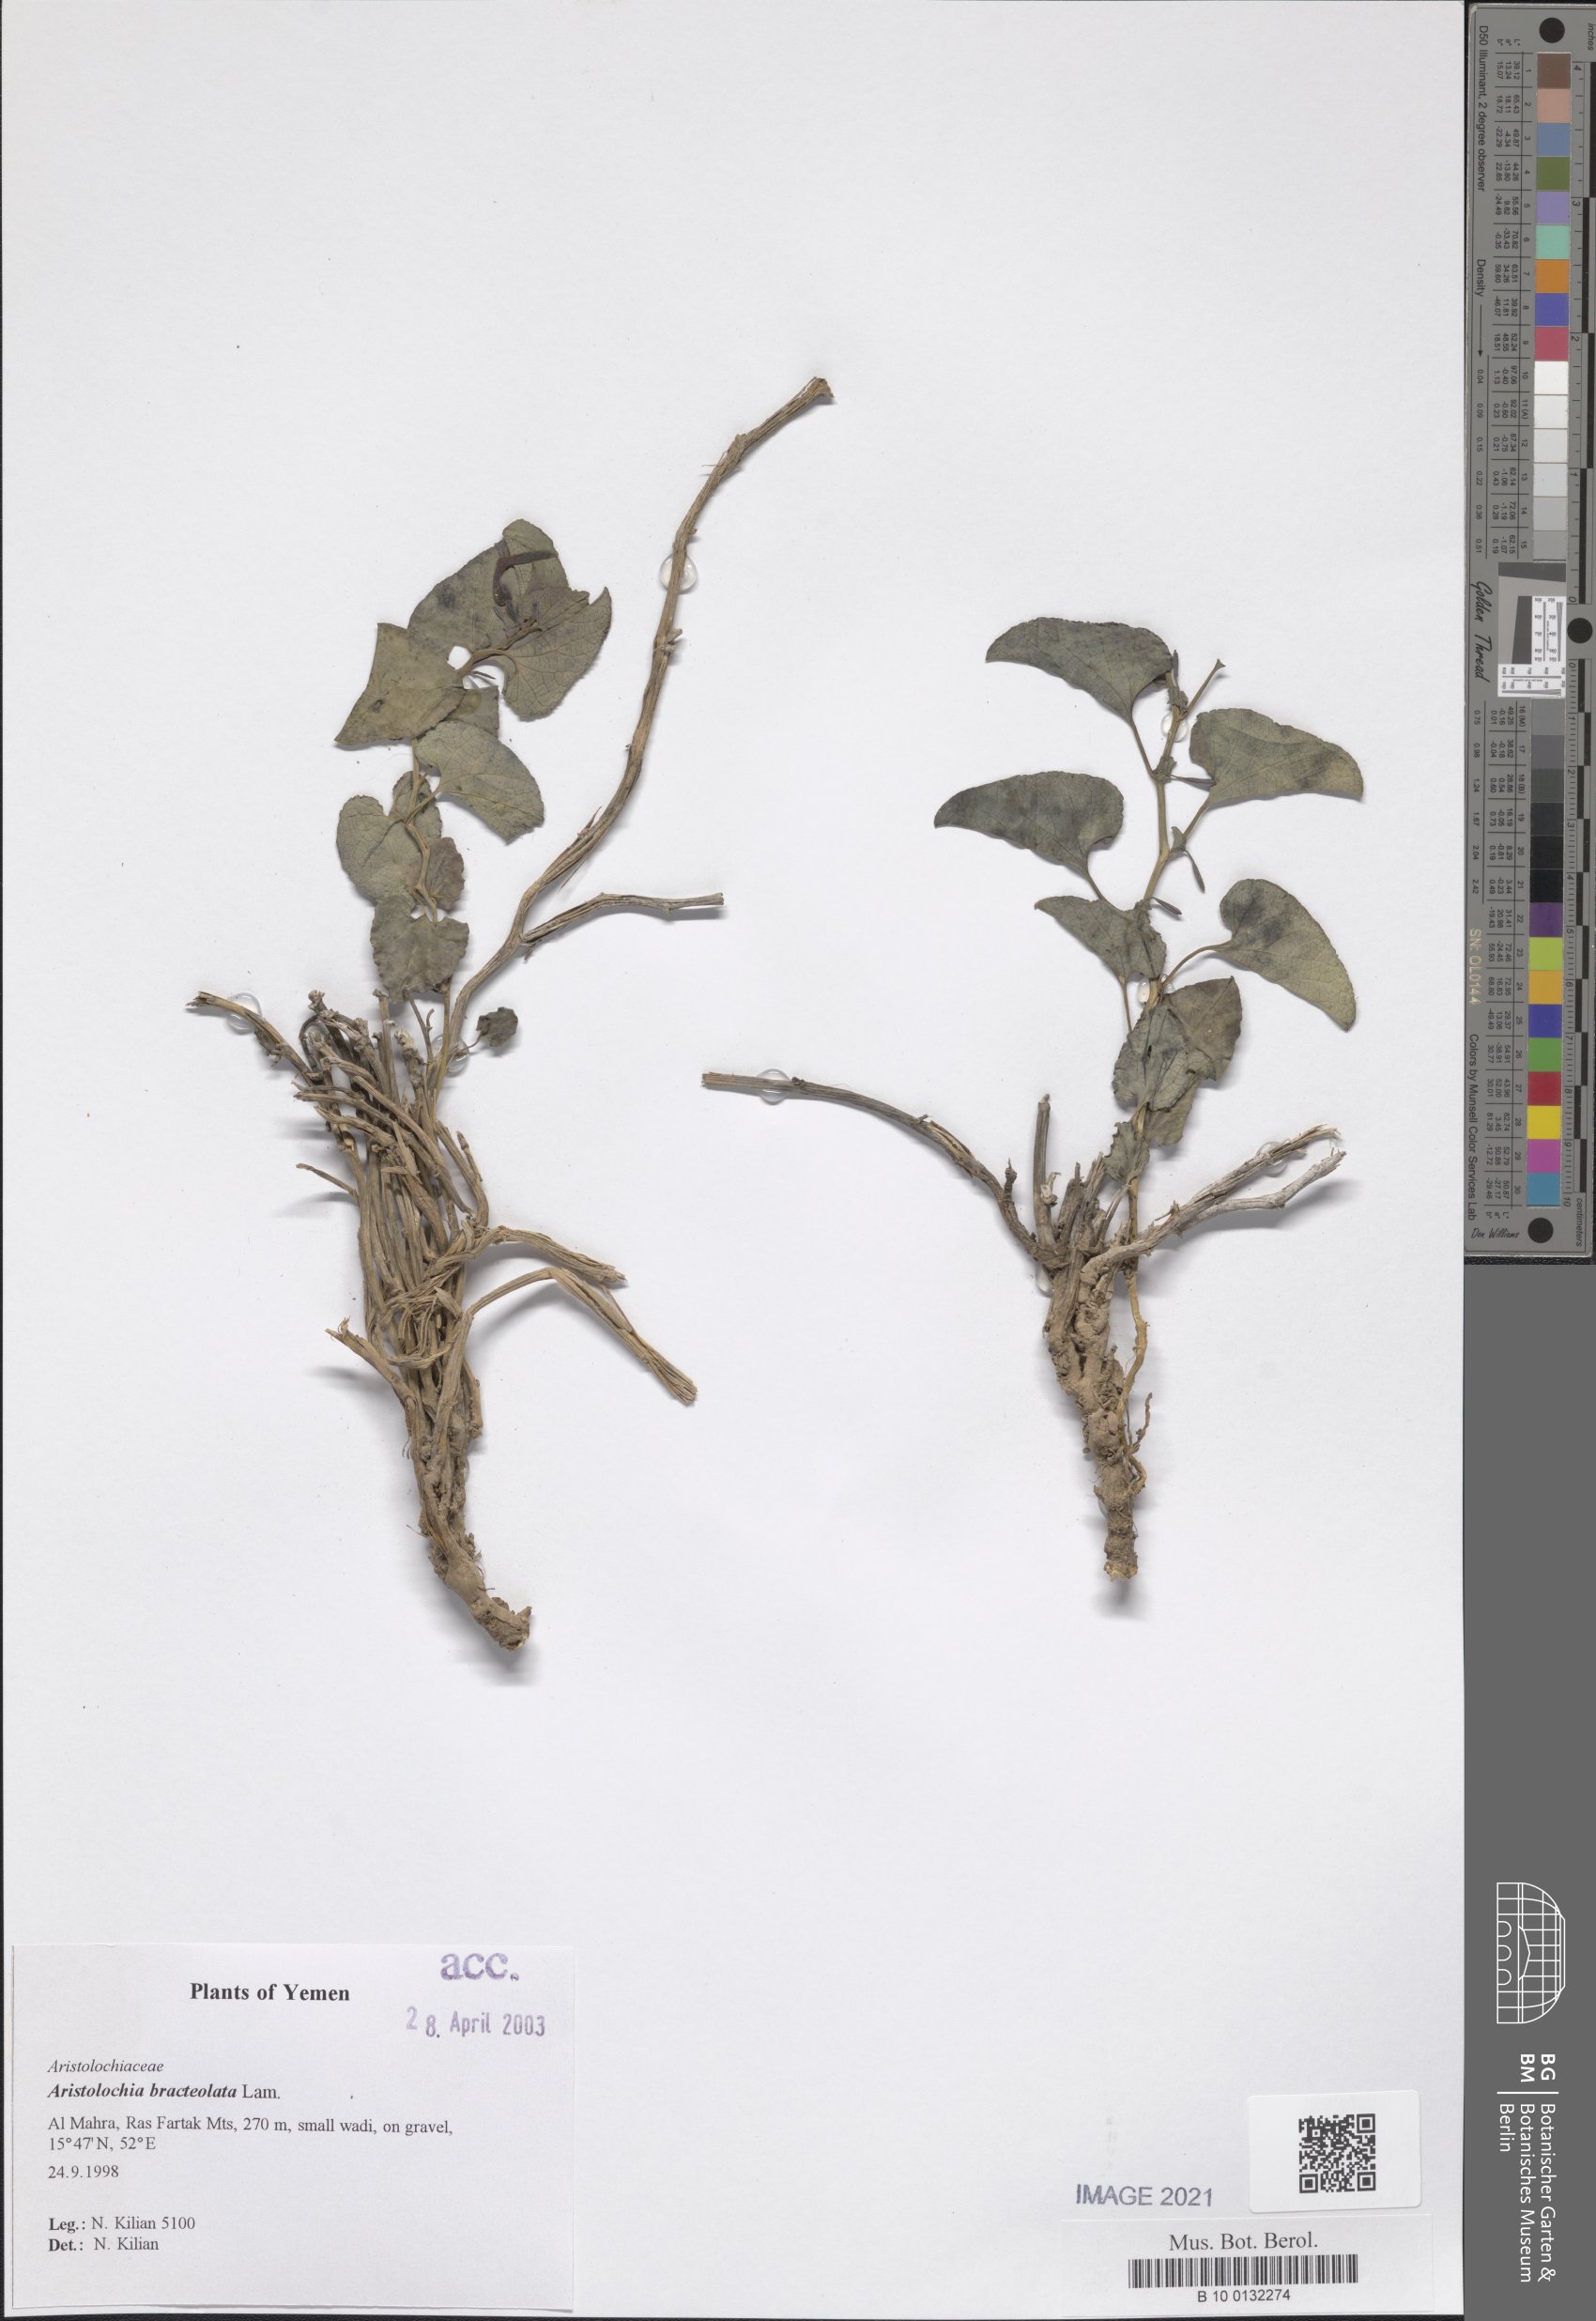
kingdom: Plantae
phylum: Tracheophyta
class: Magnoliopsida
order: Piperales
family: Aristolochiaceae
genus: Aristolochia
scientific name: Aristolochia bracteolata
